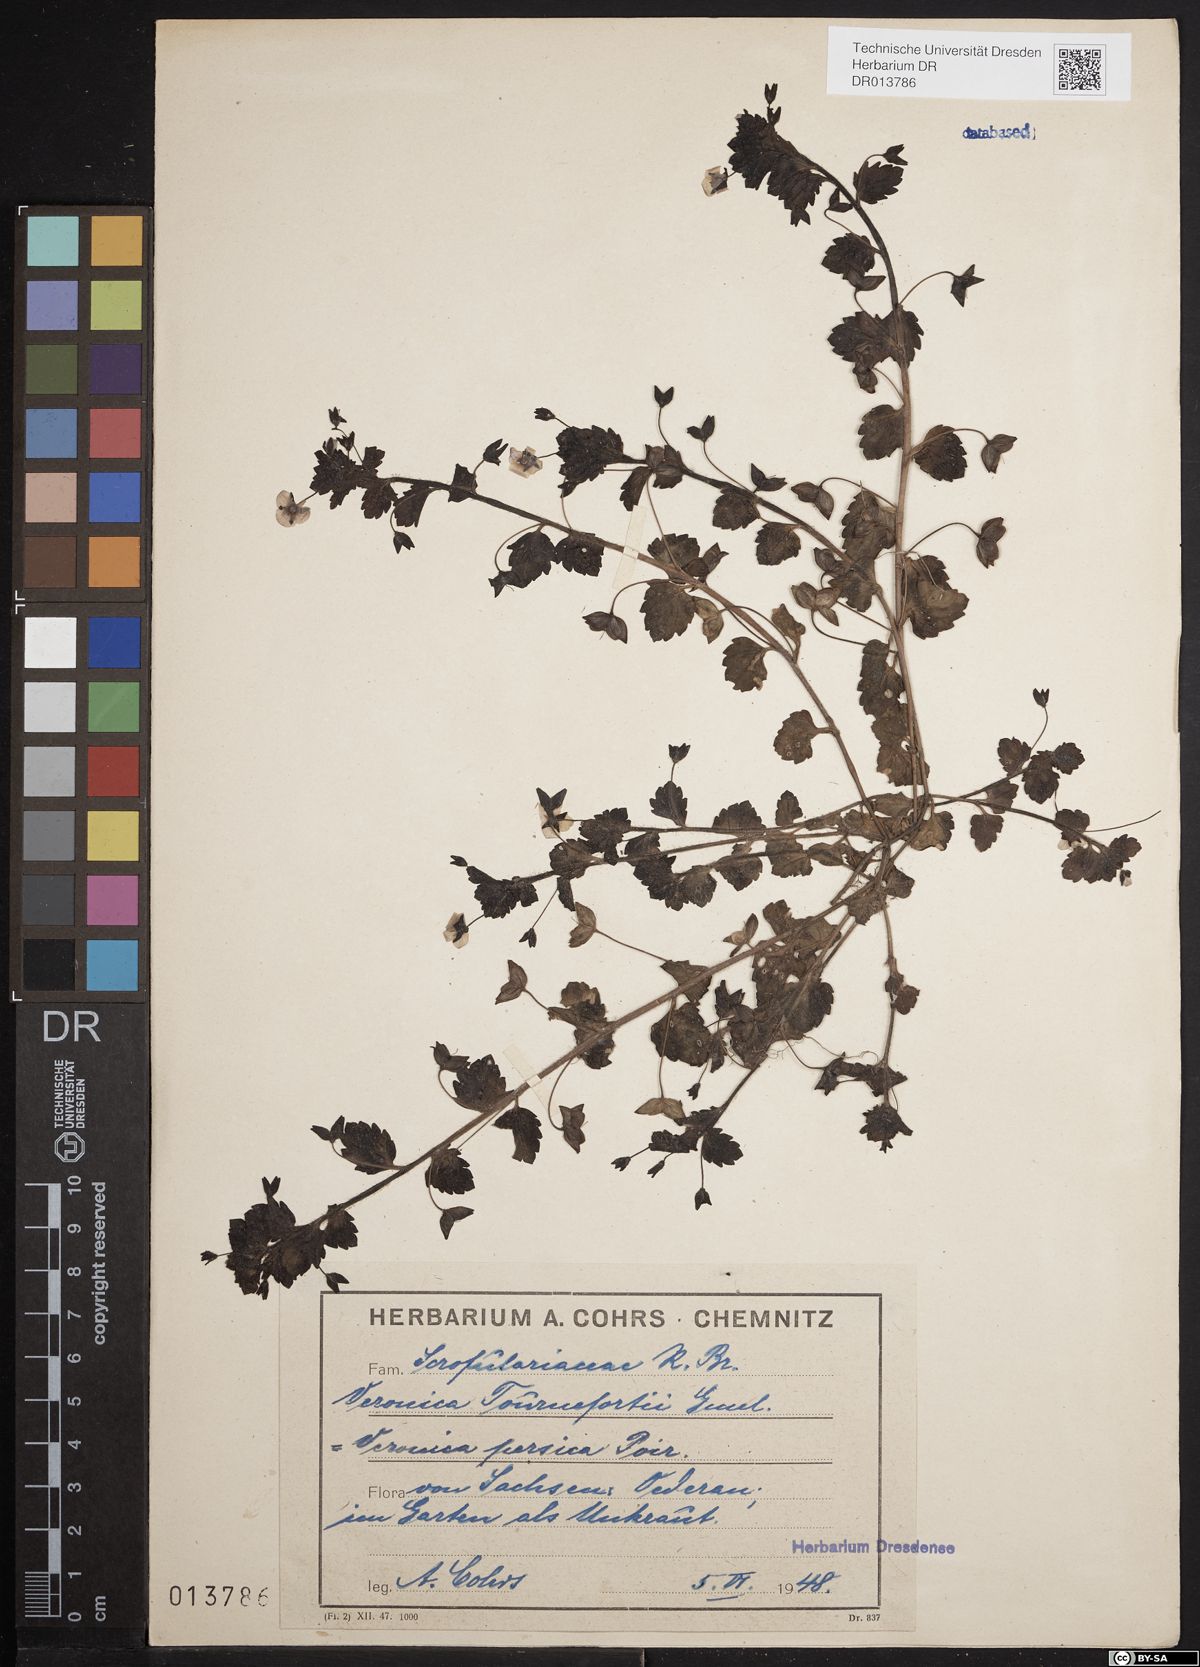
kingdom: Plantae
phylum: Tracheophyta
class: Magnoliopsida
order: Lamiales
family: Plantaginaceae
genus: Veronica
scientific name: Veronica persica
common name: Common field-speedwell
